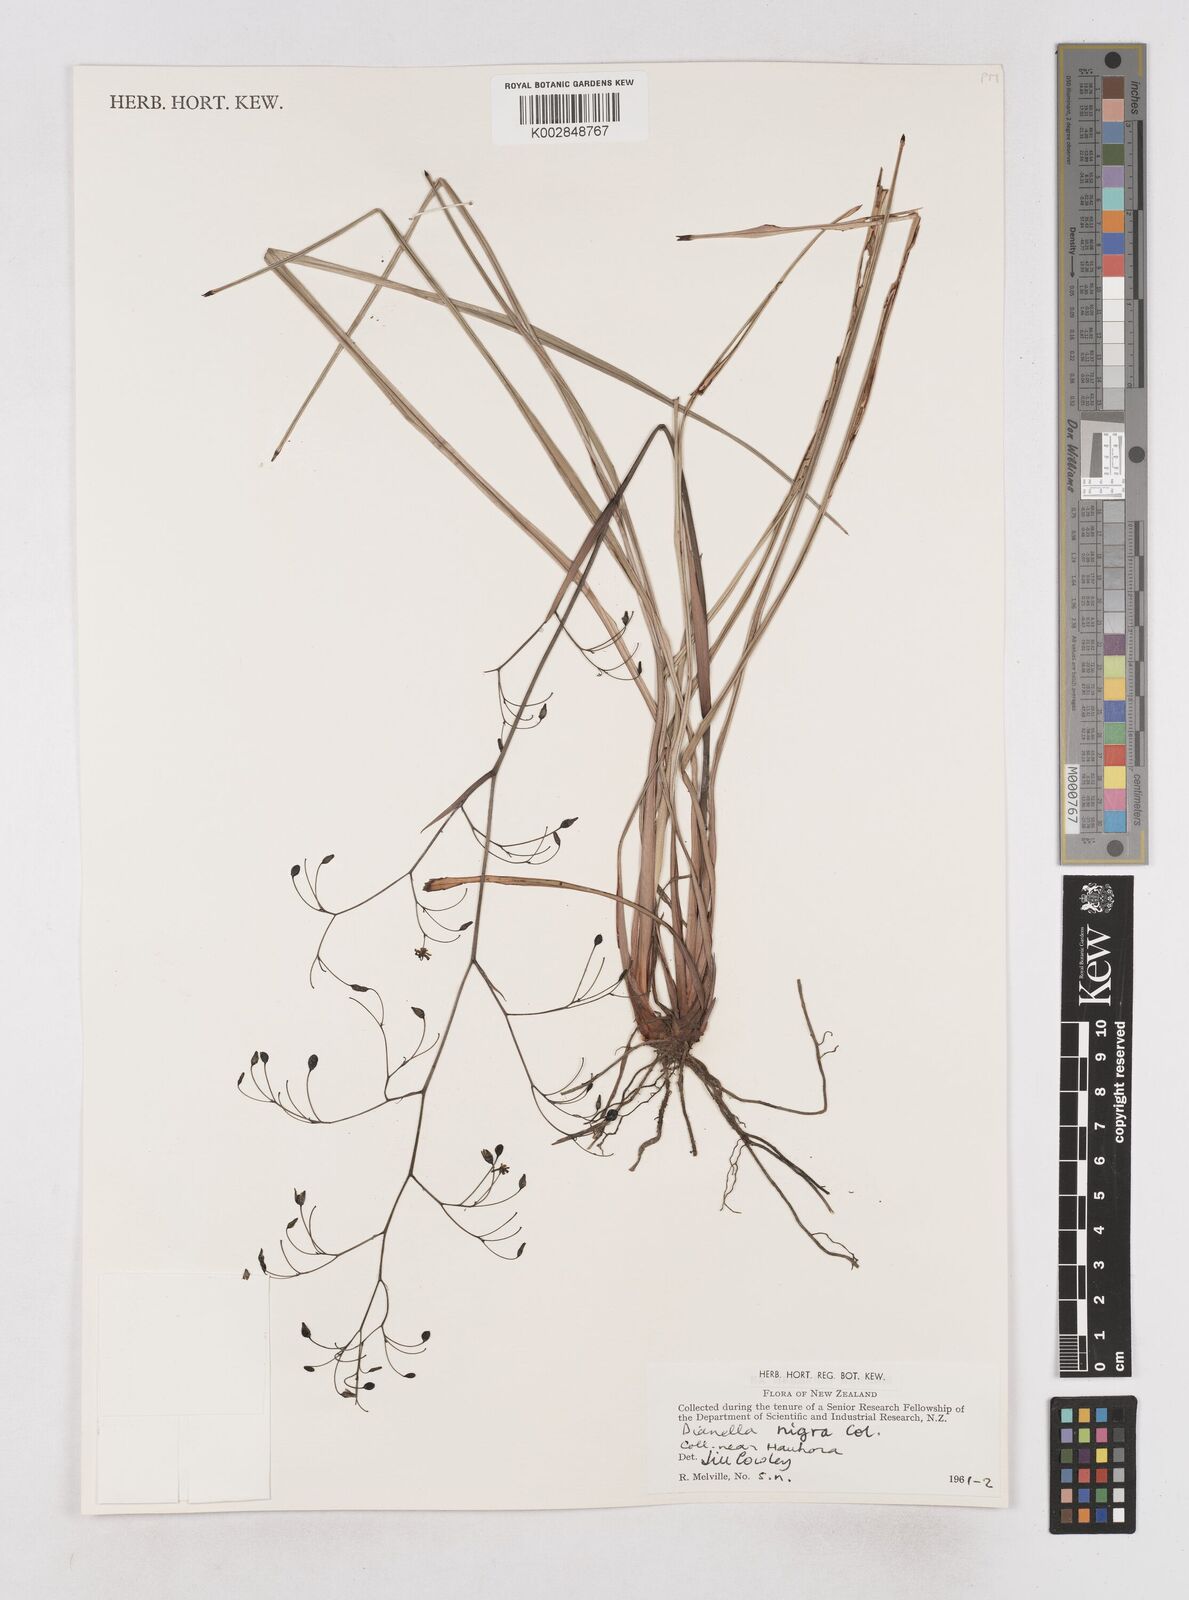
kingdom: Plantae
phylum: Tracheophyta
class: Liliopsida
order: Asparagales
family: Asphodelaceae
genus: Dianella
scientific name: Dianella nigra
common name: New zealand-blueberry
